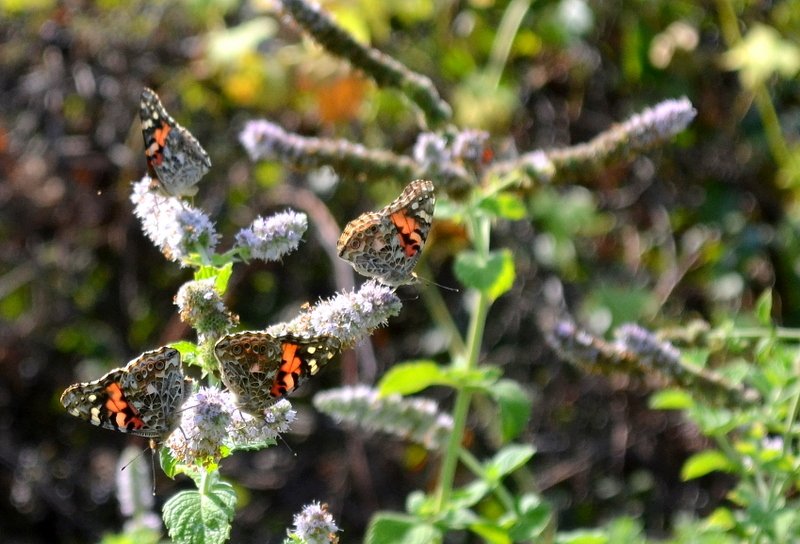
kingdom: Animalia
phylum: Arthropoda
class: Insecta
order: Lepidoptera
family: Nymphalidae
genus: Vanessa
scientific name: Vanessa cardui
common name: Painted Lady
